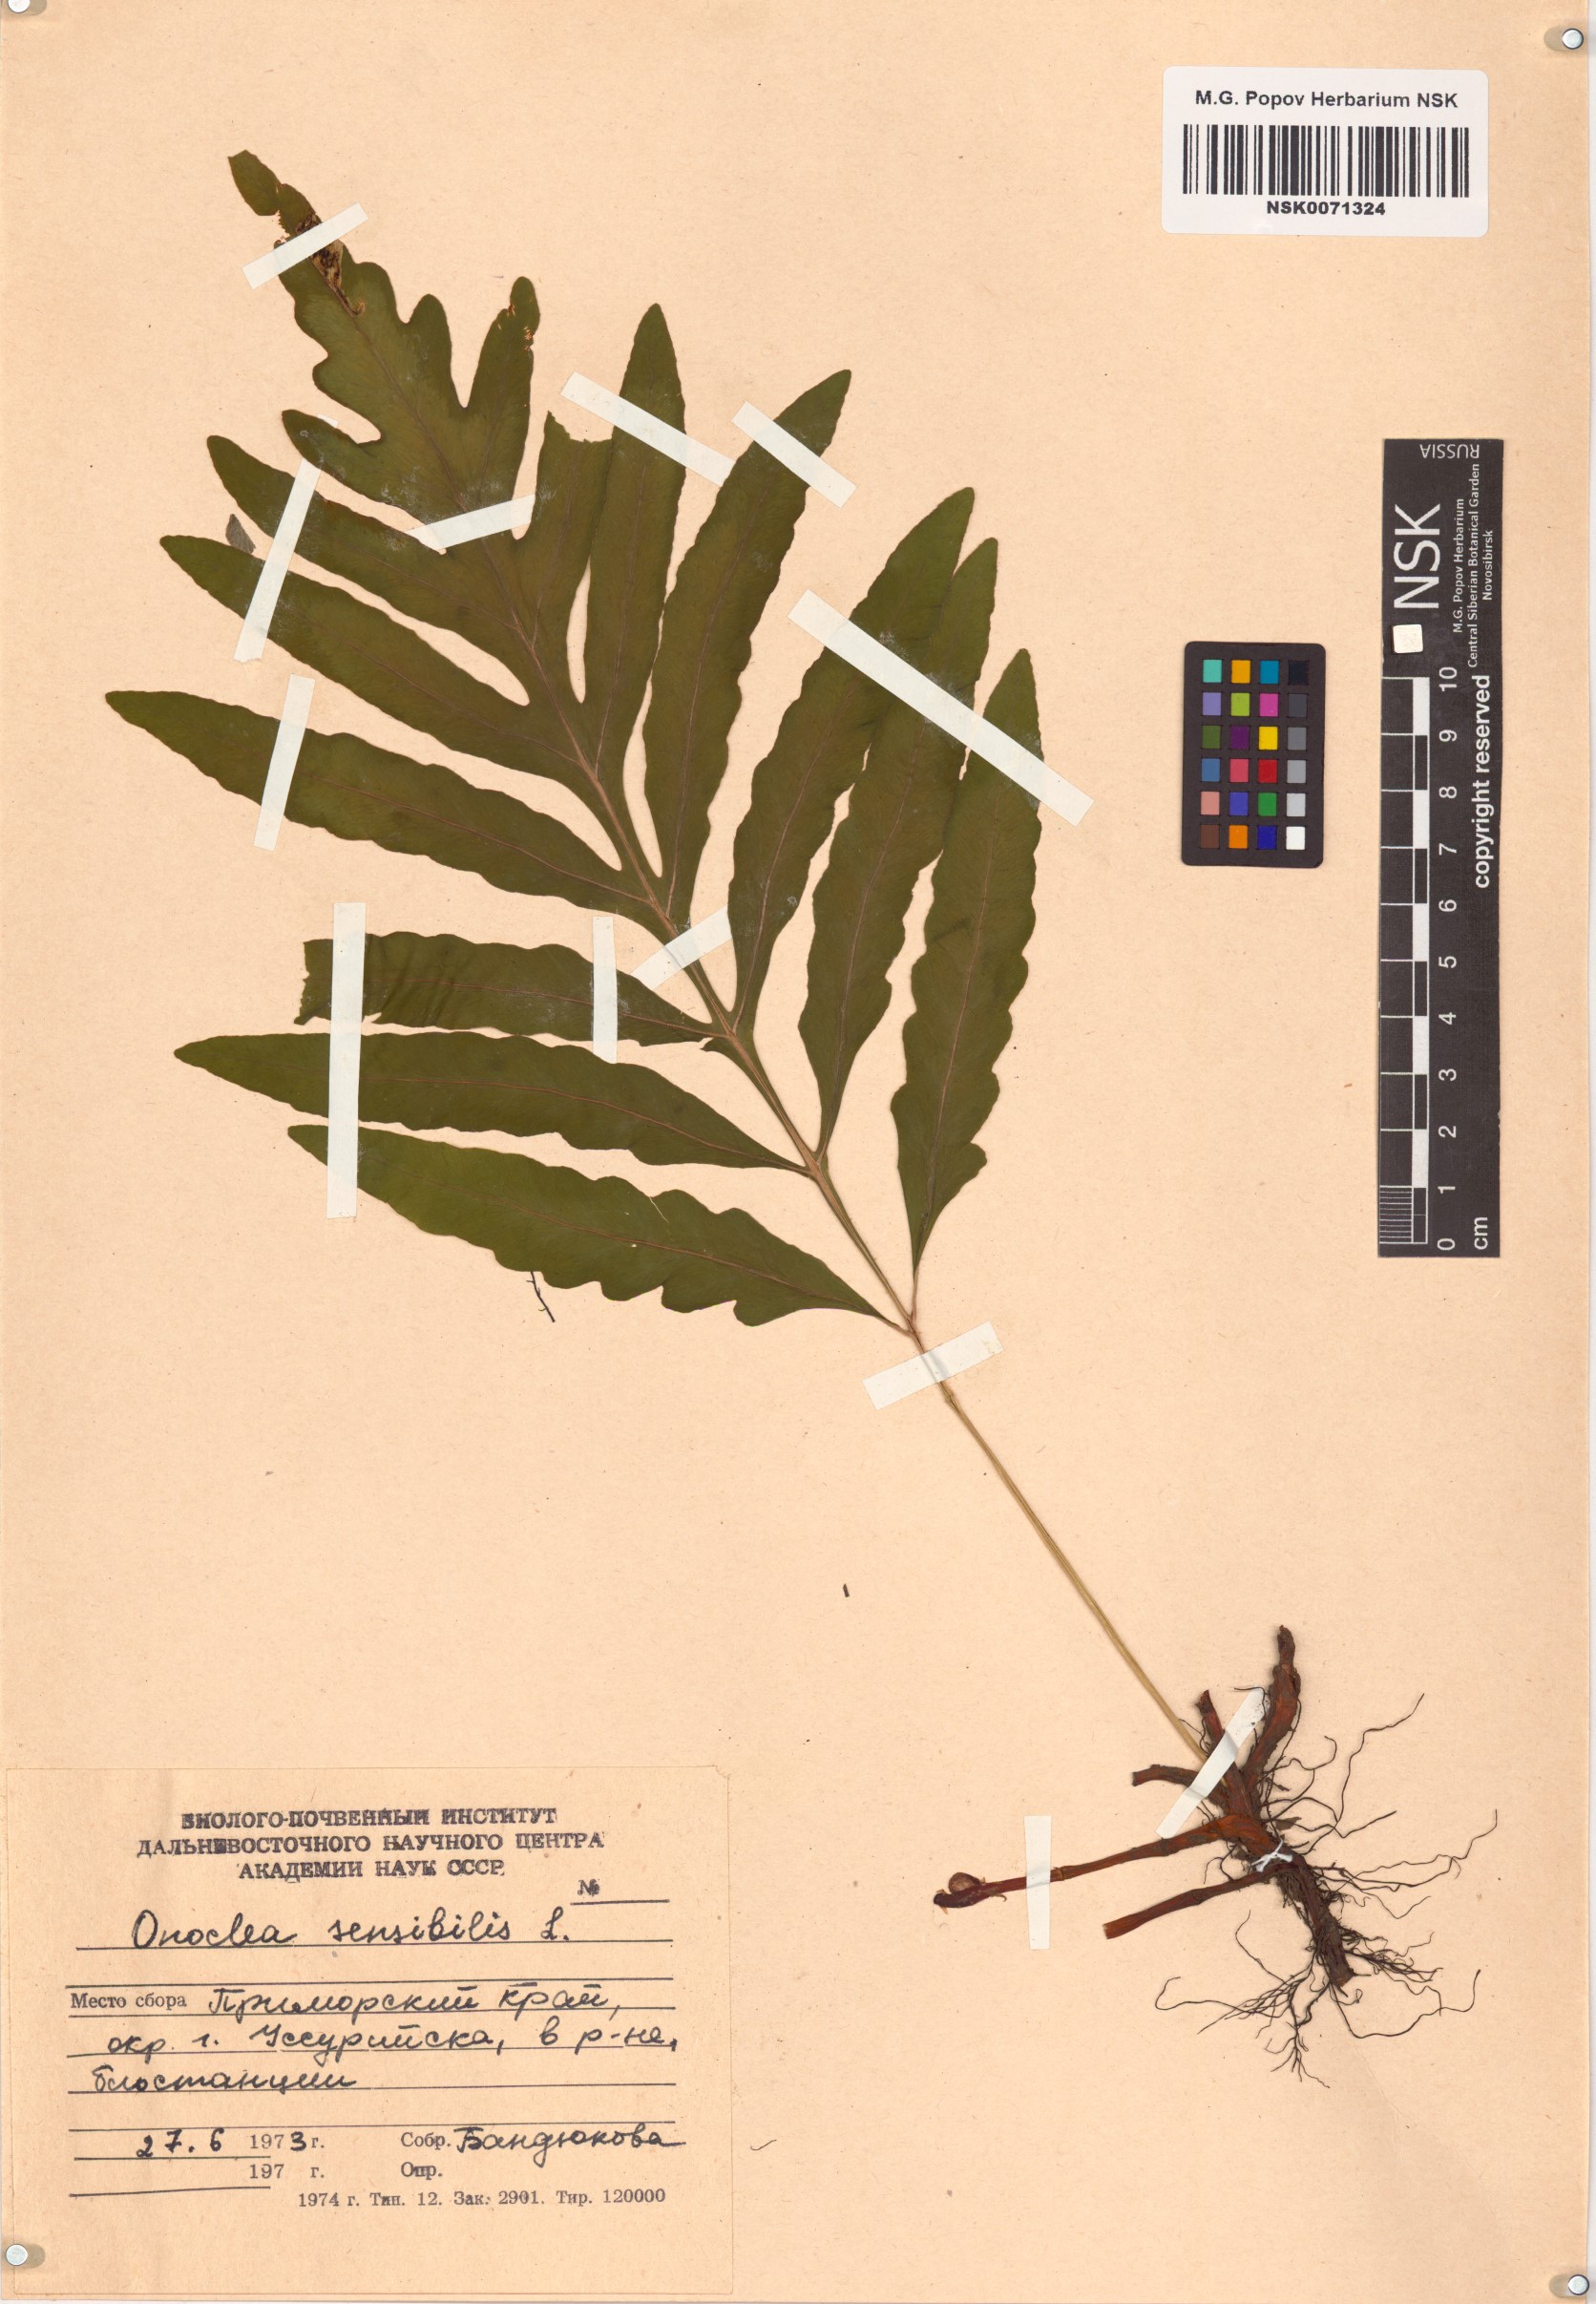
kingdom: Plantae
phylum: Tracheophyta
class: Polypodiopsida
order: Polypodiales
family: Onocleaceae
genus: Onoclea
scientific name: Onoclea sensibilis
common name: Sensitive fern
